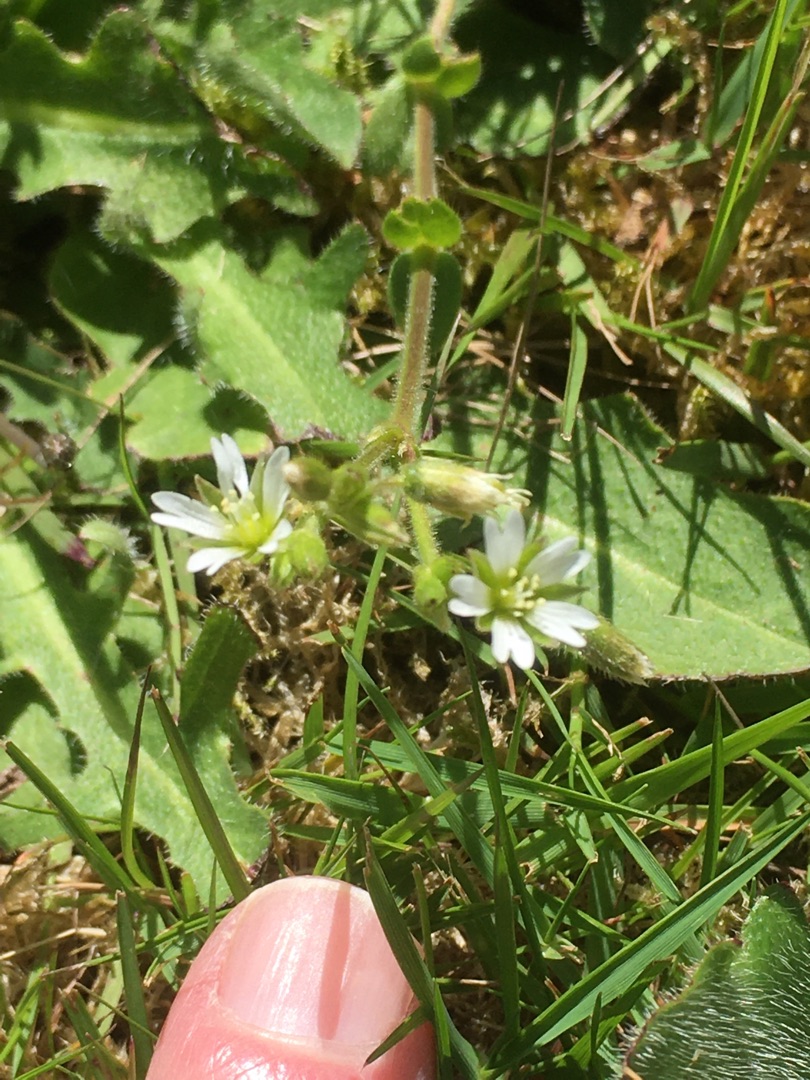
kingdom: Plantae
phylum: Tracheophyta
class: Magnoliopsida
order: Caryophyllales
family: Caryophyllaceae
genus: Cerastium
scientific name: Cerastium fontanum
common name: Almindelig hønsetarm
